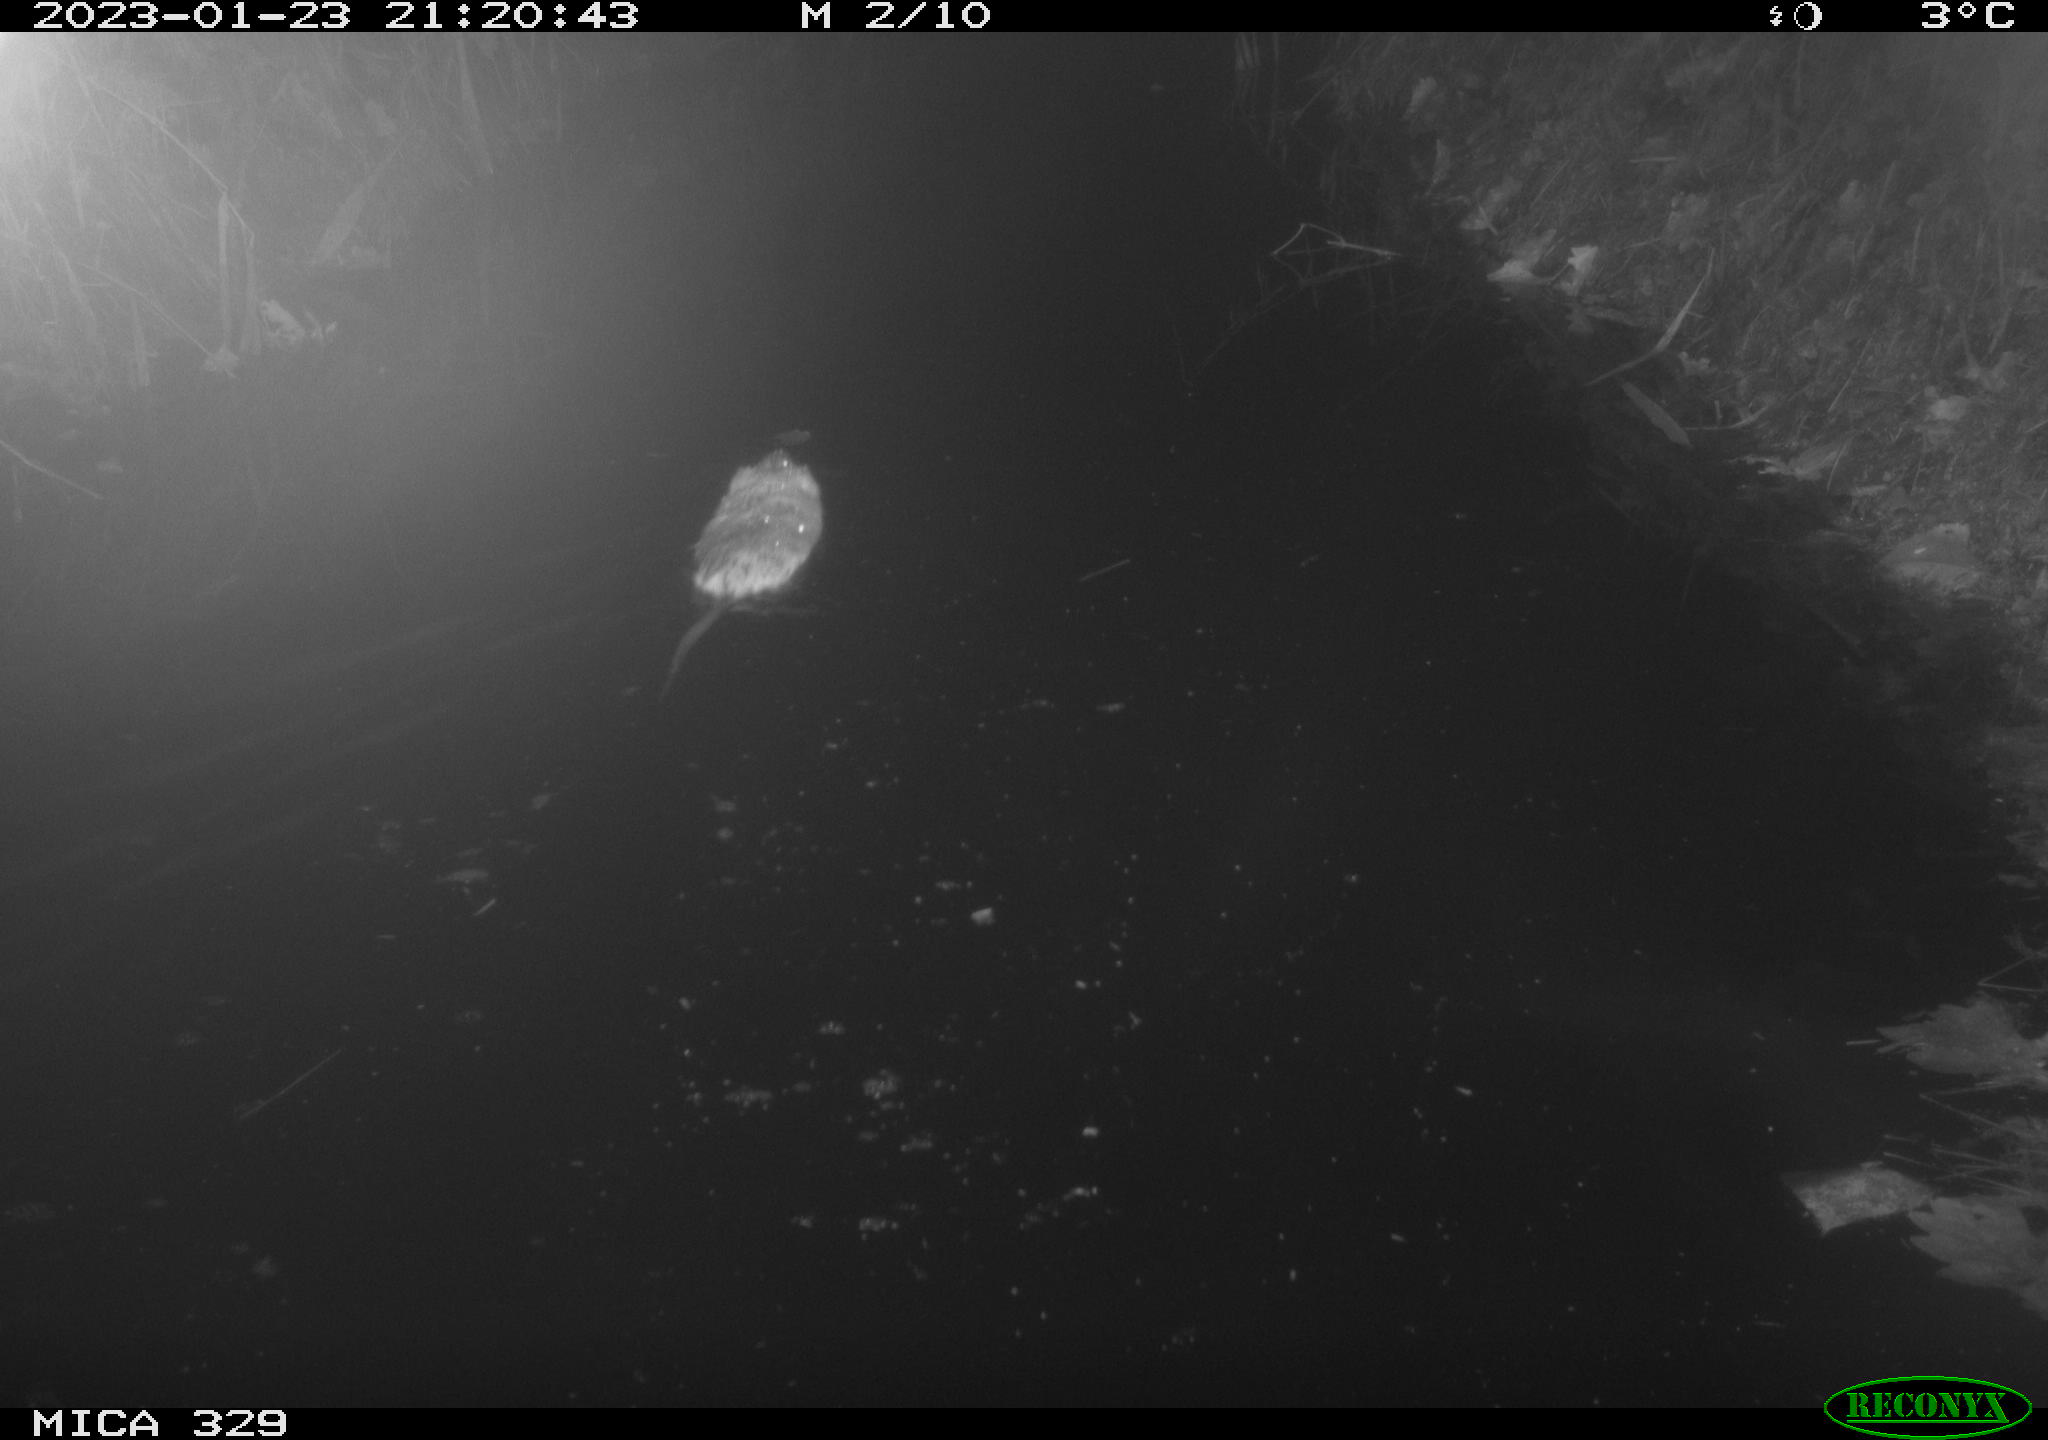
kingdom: Animalia
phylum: Chordata
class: Mammalia
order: Rodentia
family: Cricetidae
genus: Ondatra
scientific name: Ondatra zibethicus
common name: Muskrat
